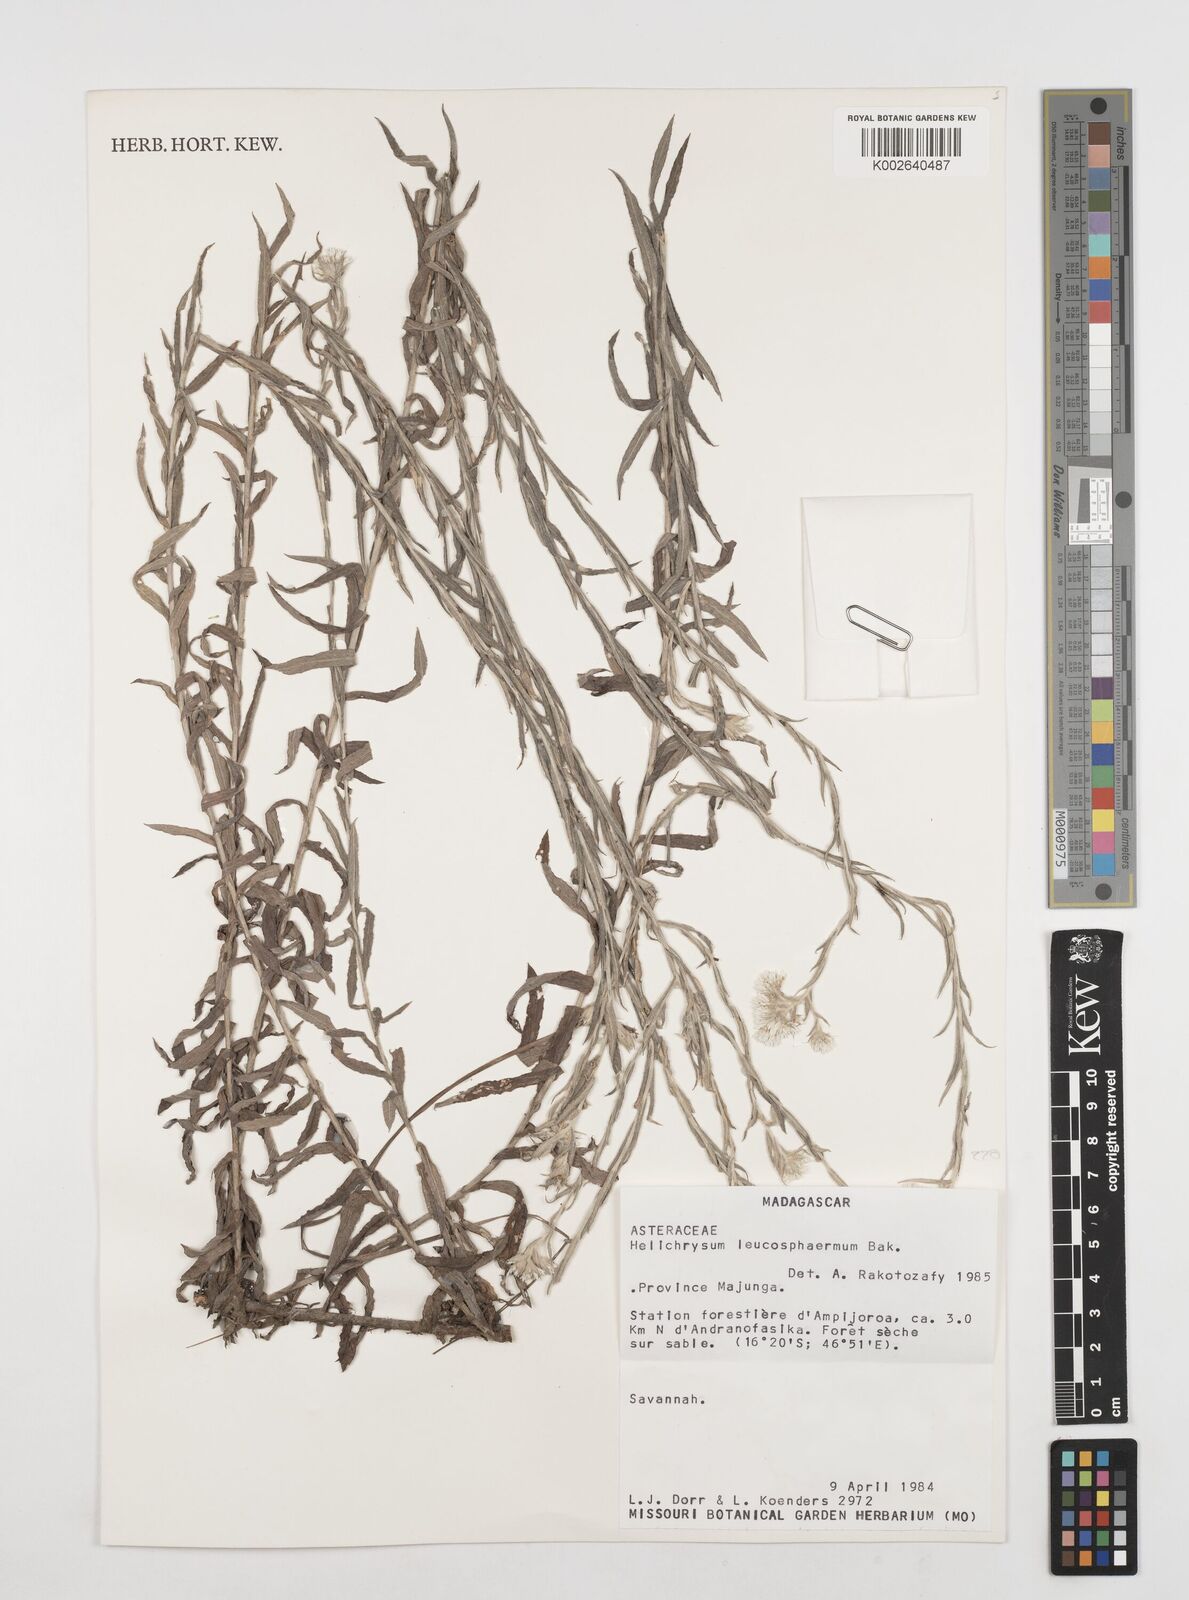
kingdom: Plantae
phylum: Tracheophyta
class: Magnoliopsida
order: Asterales
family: Asteraceae
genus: Helichrysum
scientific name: Helichrysum leucosphaerum
